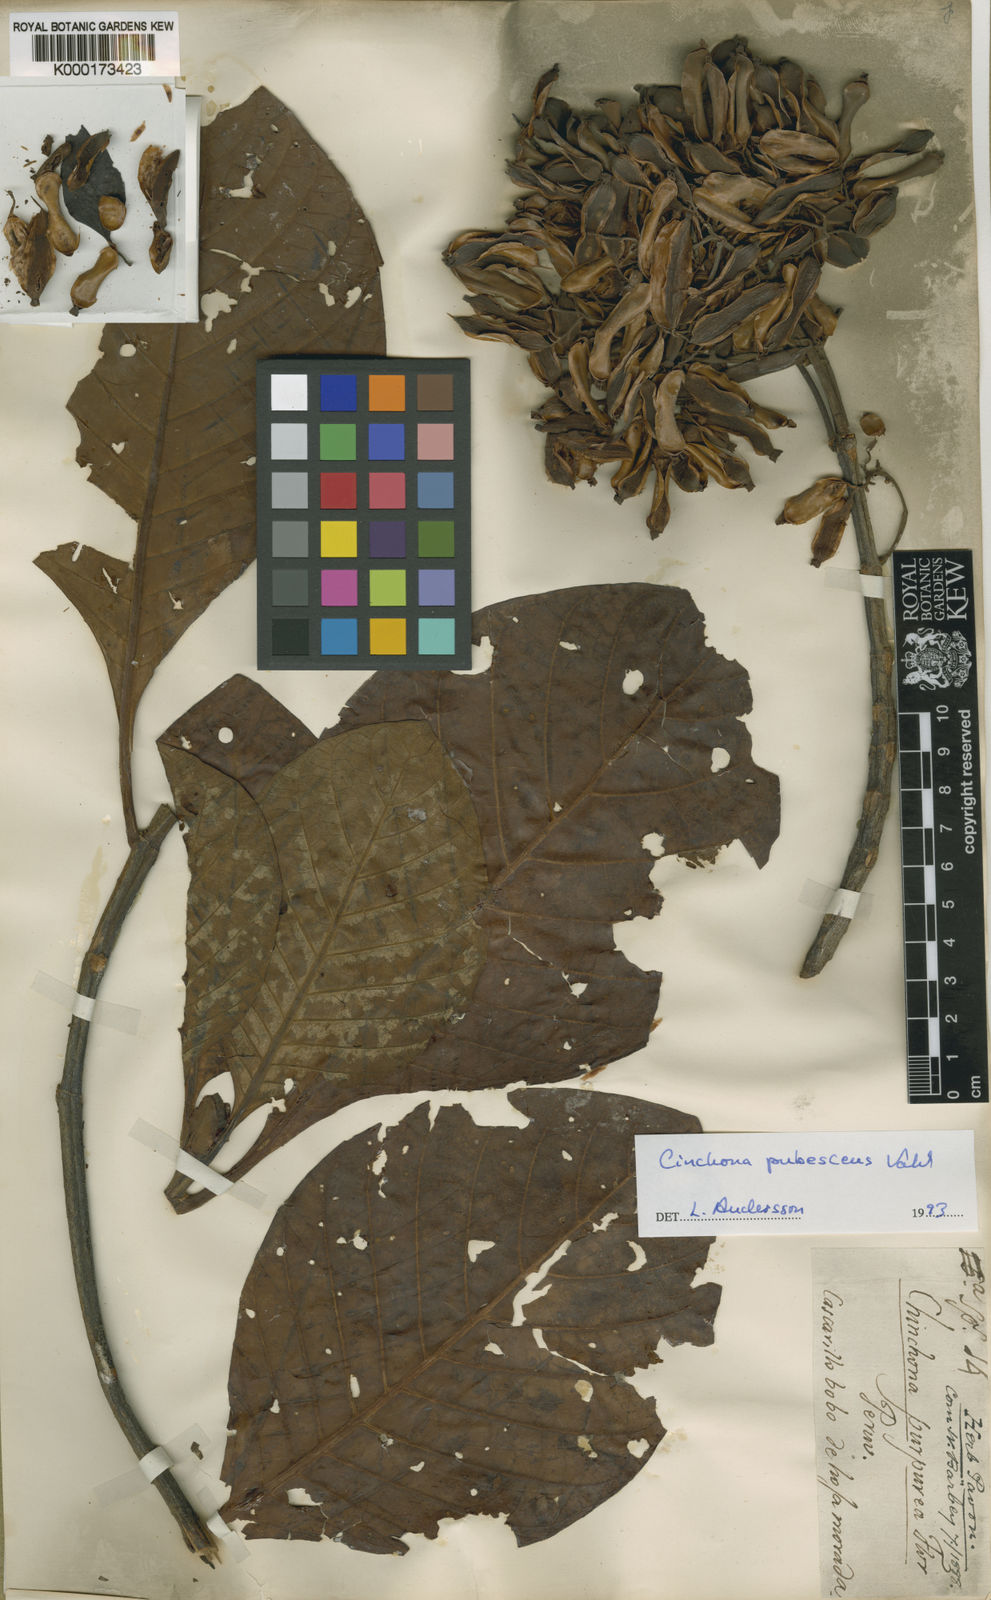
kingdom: Plantae
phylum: Tracheophyta
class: Magnoliopsida
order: Gentianales
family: Rubiaceae
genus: Cinchona
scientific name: Cinchona pubescens
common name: Quinine
